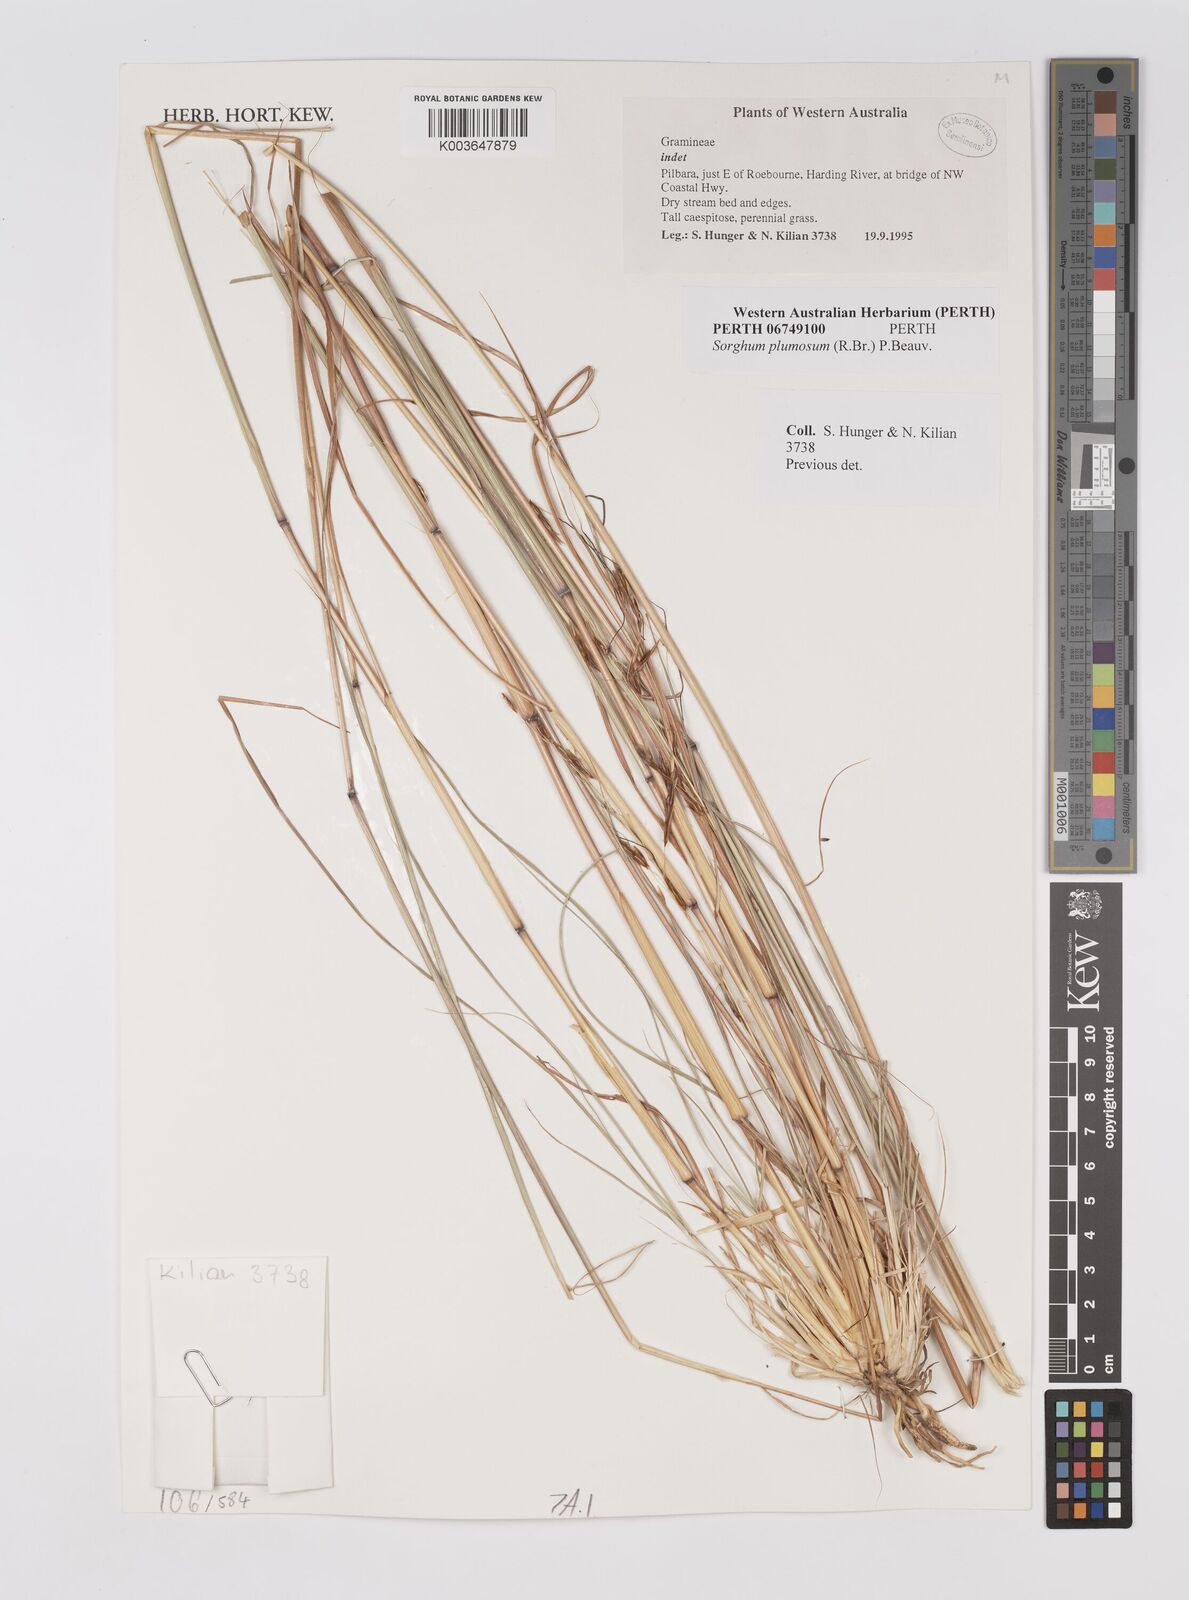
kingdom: Plantae
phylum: Tracheophyta
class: Liliopsida
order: Poales
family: Poaceae
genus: Sarga
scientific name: Sarga plumosa
